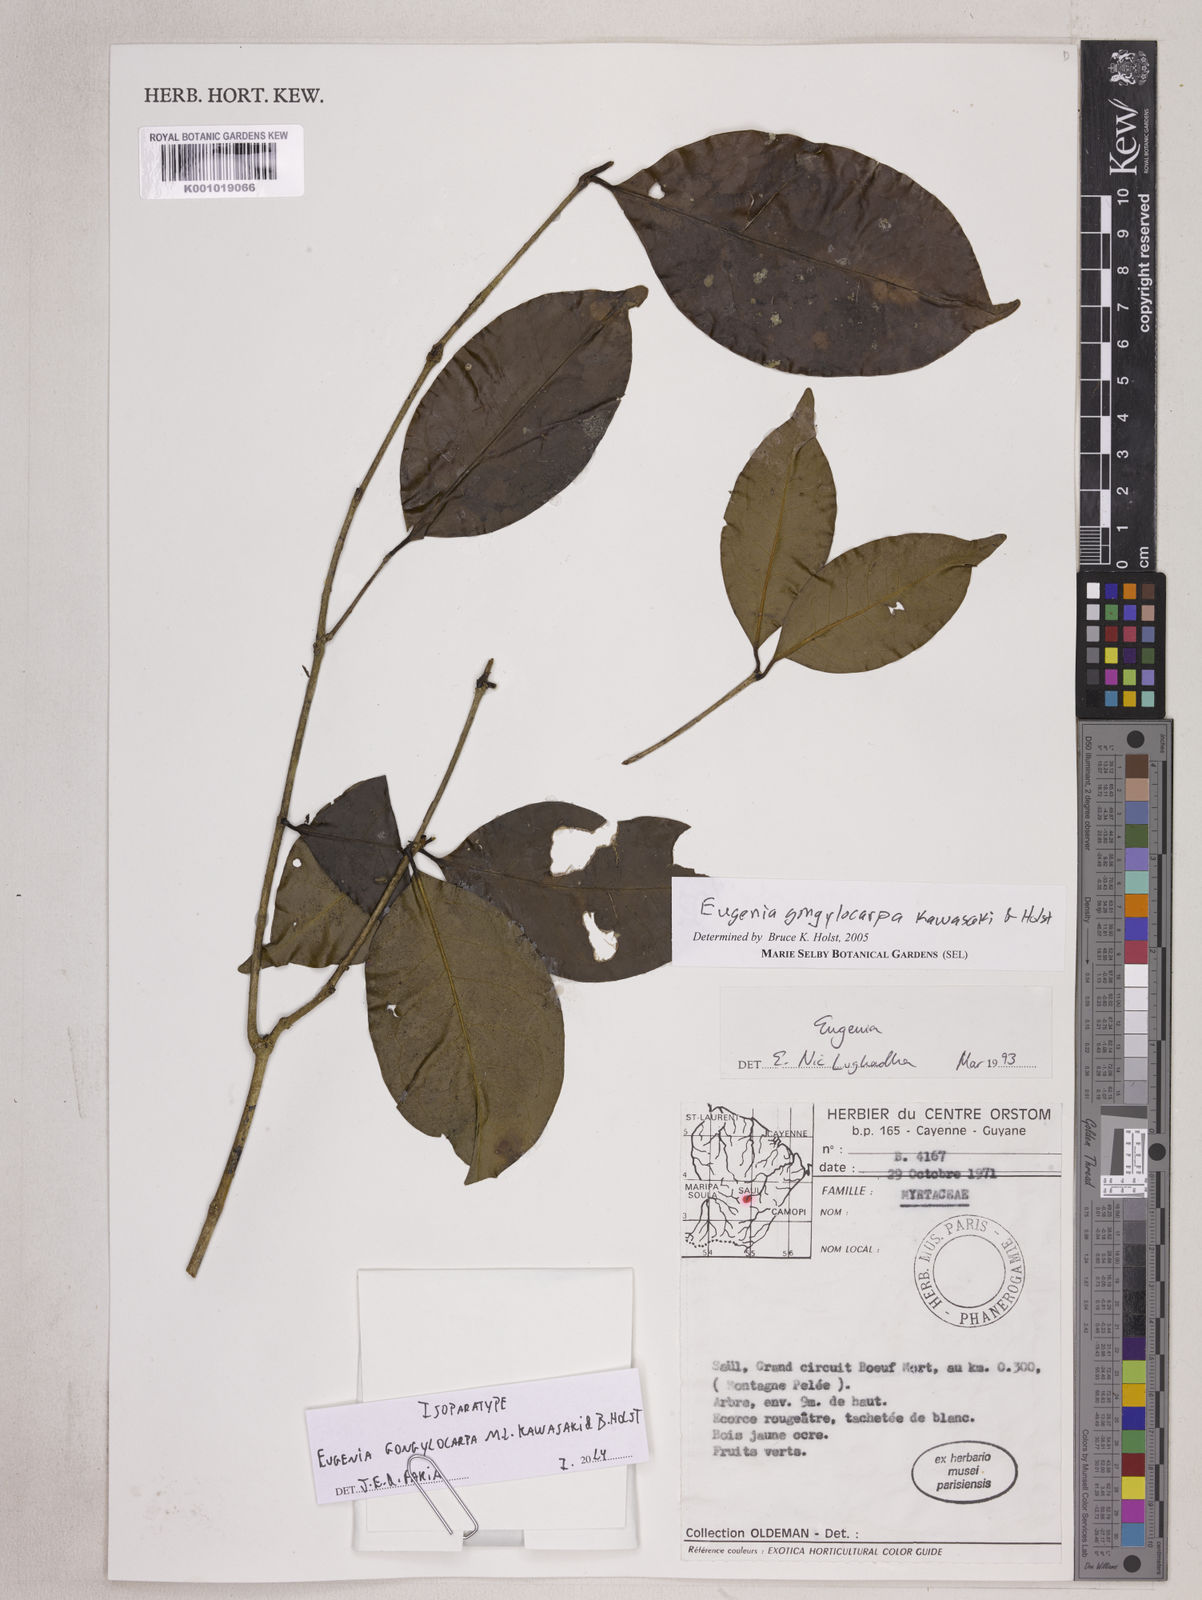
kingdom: Plantae
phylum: Tracheophyta
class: Magnoliopsida
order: Myrtales
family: Myrtaceae
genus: Eugenia
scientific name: Eugenia gongylocarpa
